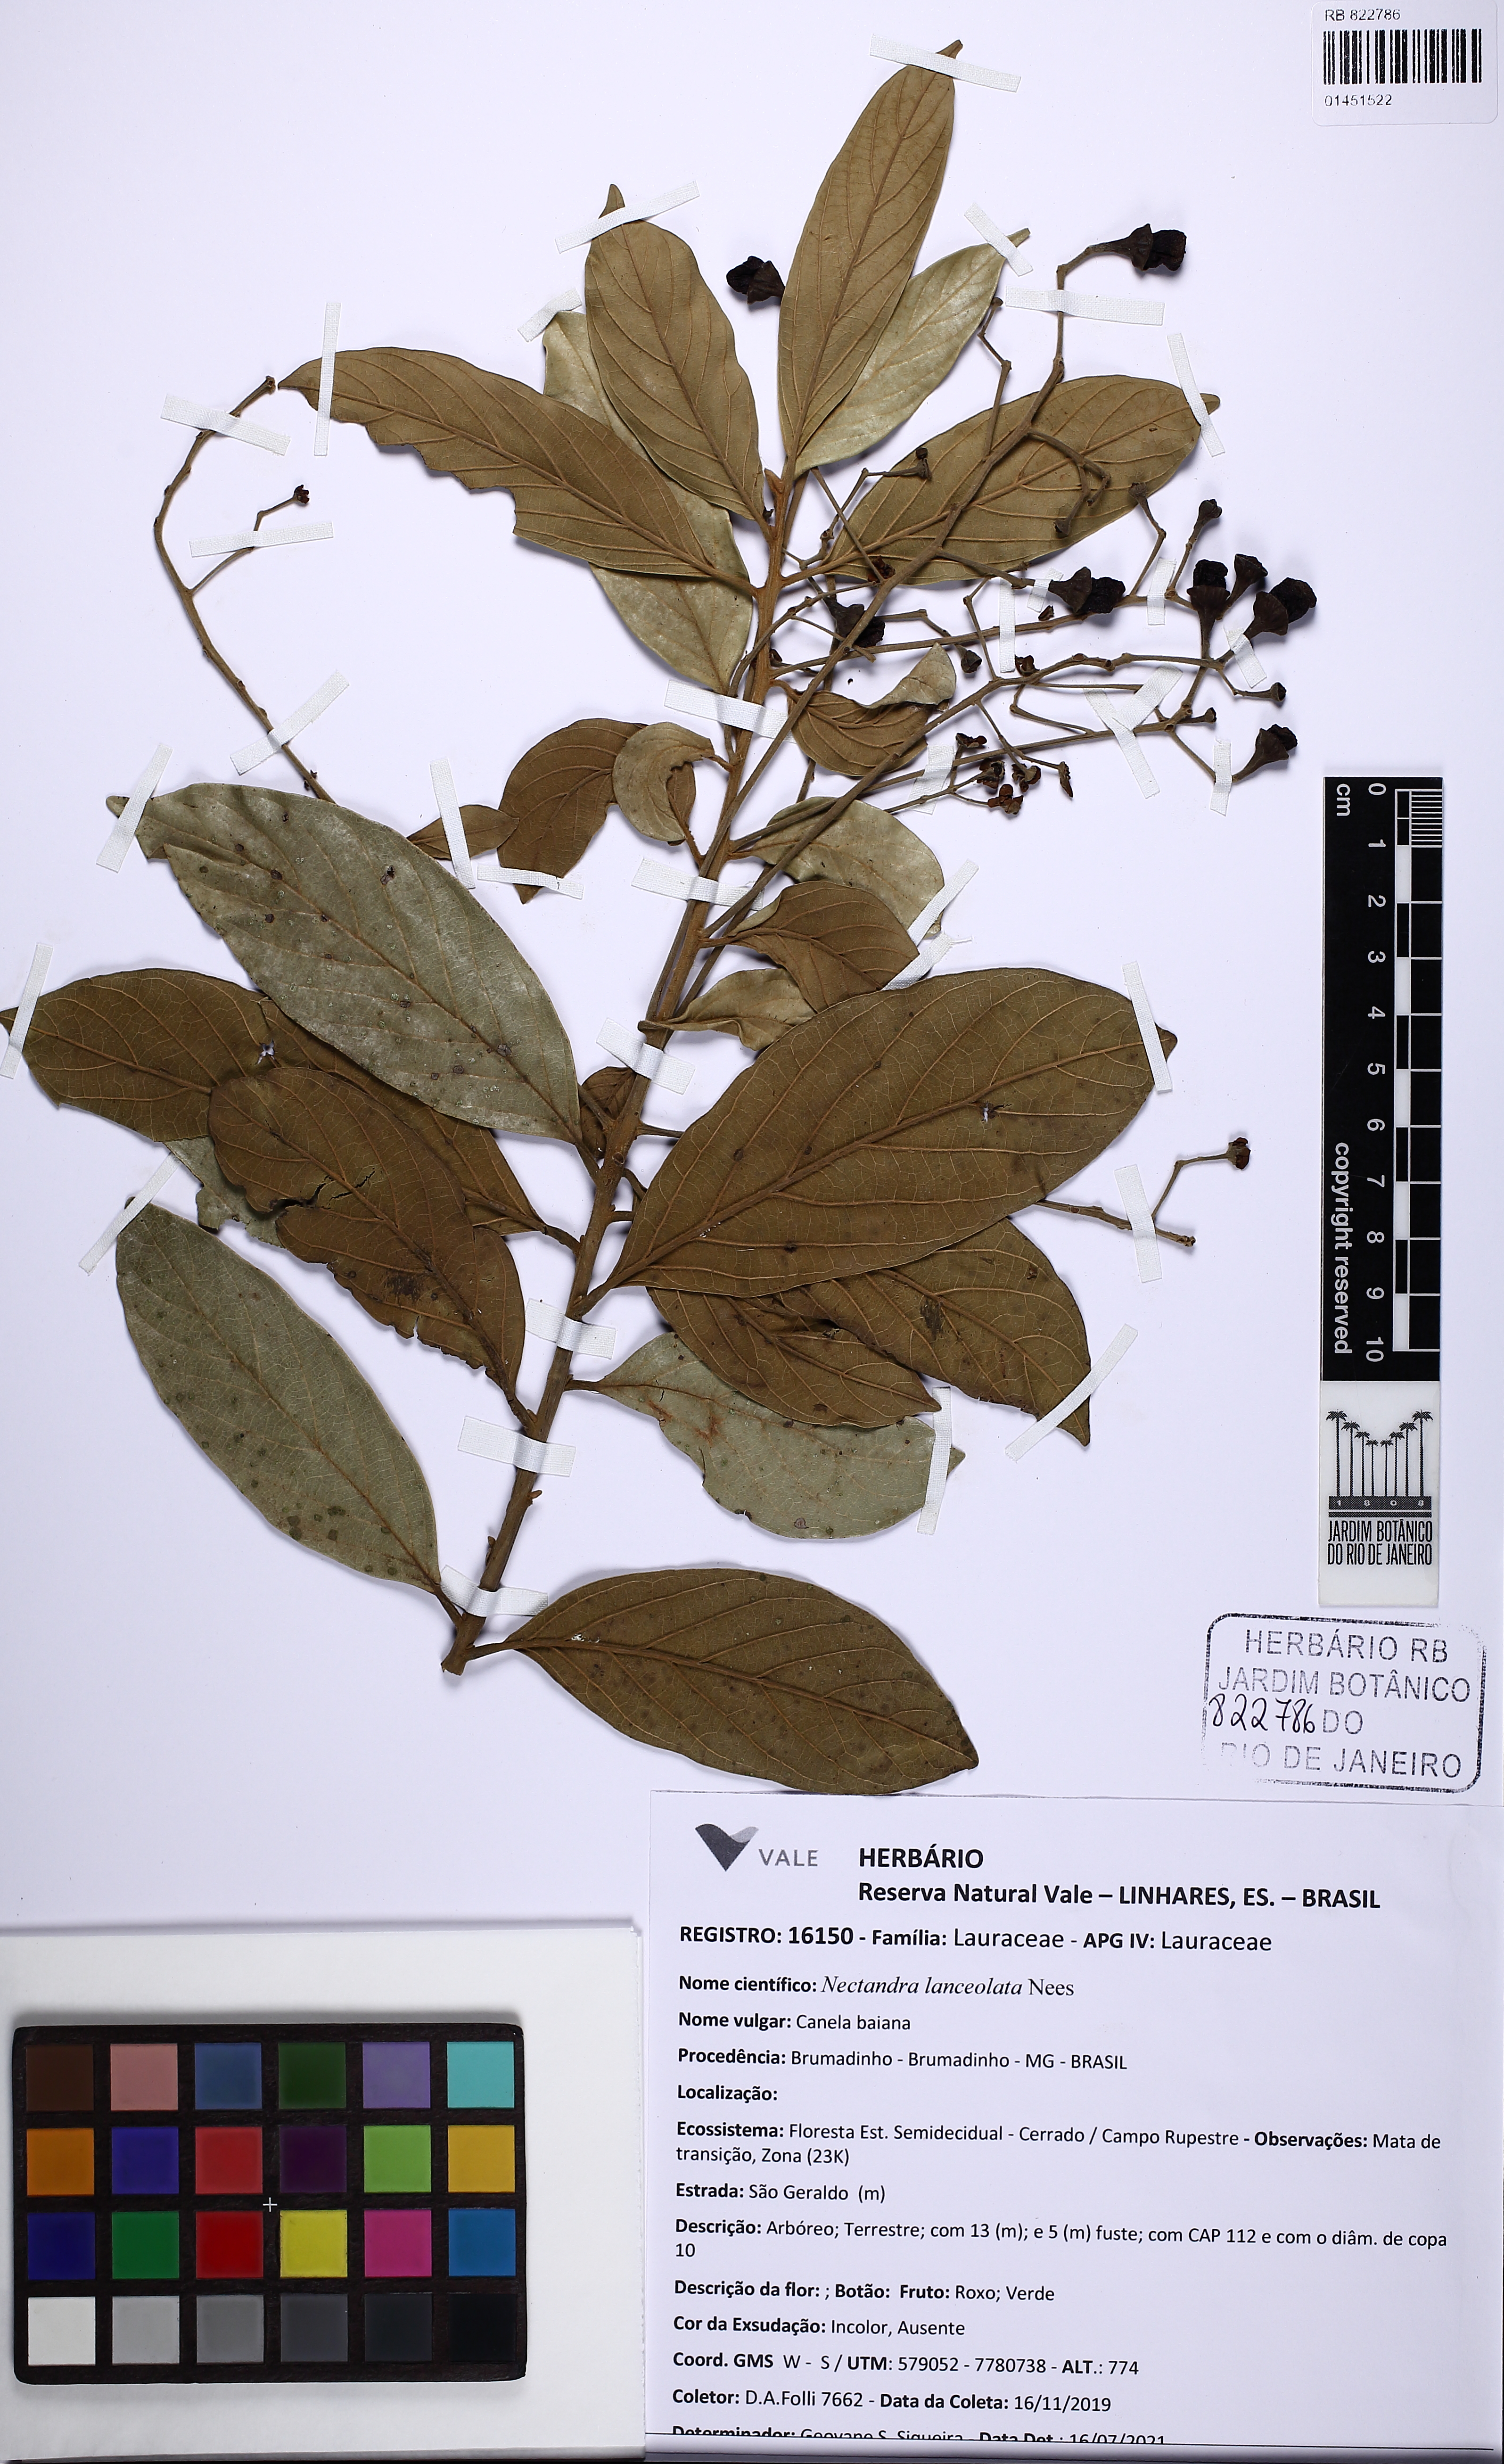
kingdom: Plantae
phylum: Tracheophyta
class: Magnoliopsida
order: Laurales
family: Lauraceae
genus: Nectandra
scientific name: Nectandra lanceolata
